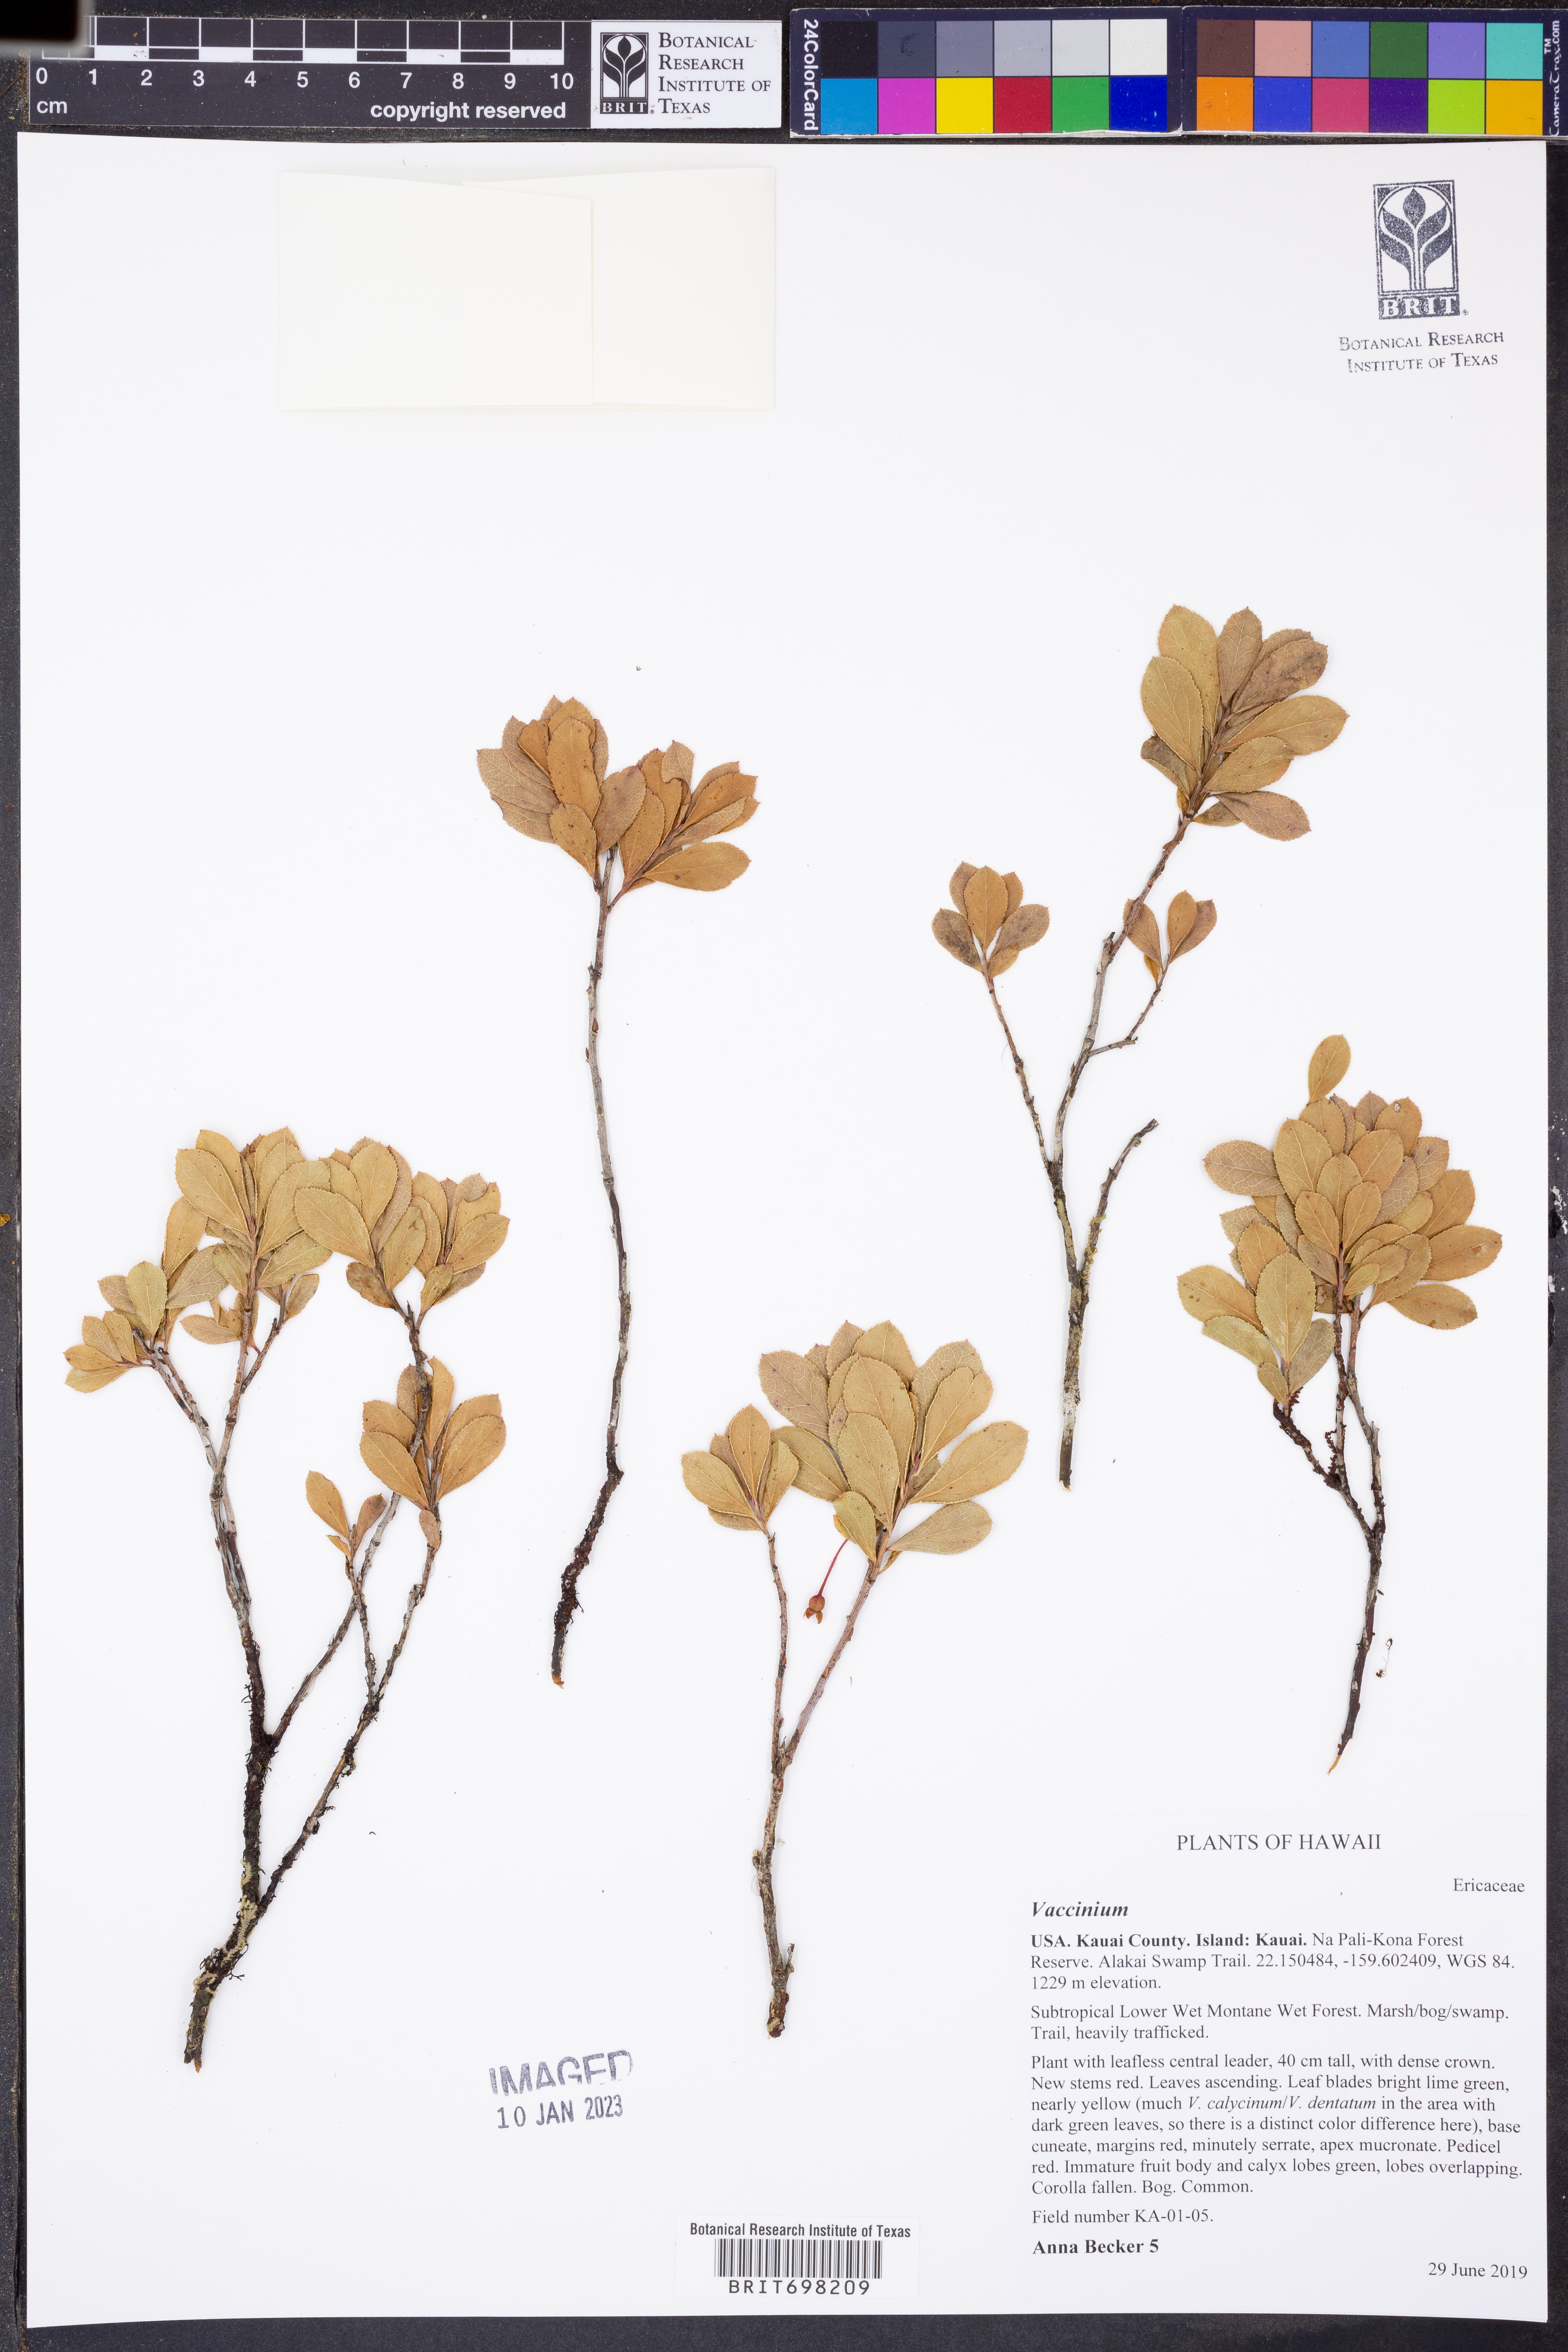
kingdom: Plantae
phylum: Tracheophyta
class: Magnoliopsida
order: Ericales
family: Ericaceae
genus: Vaccinium
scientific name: Vaccinium
